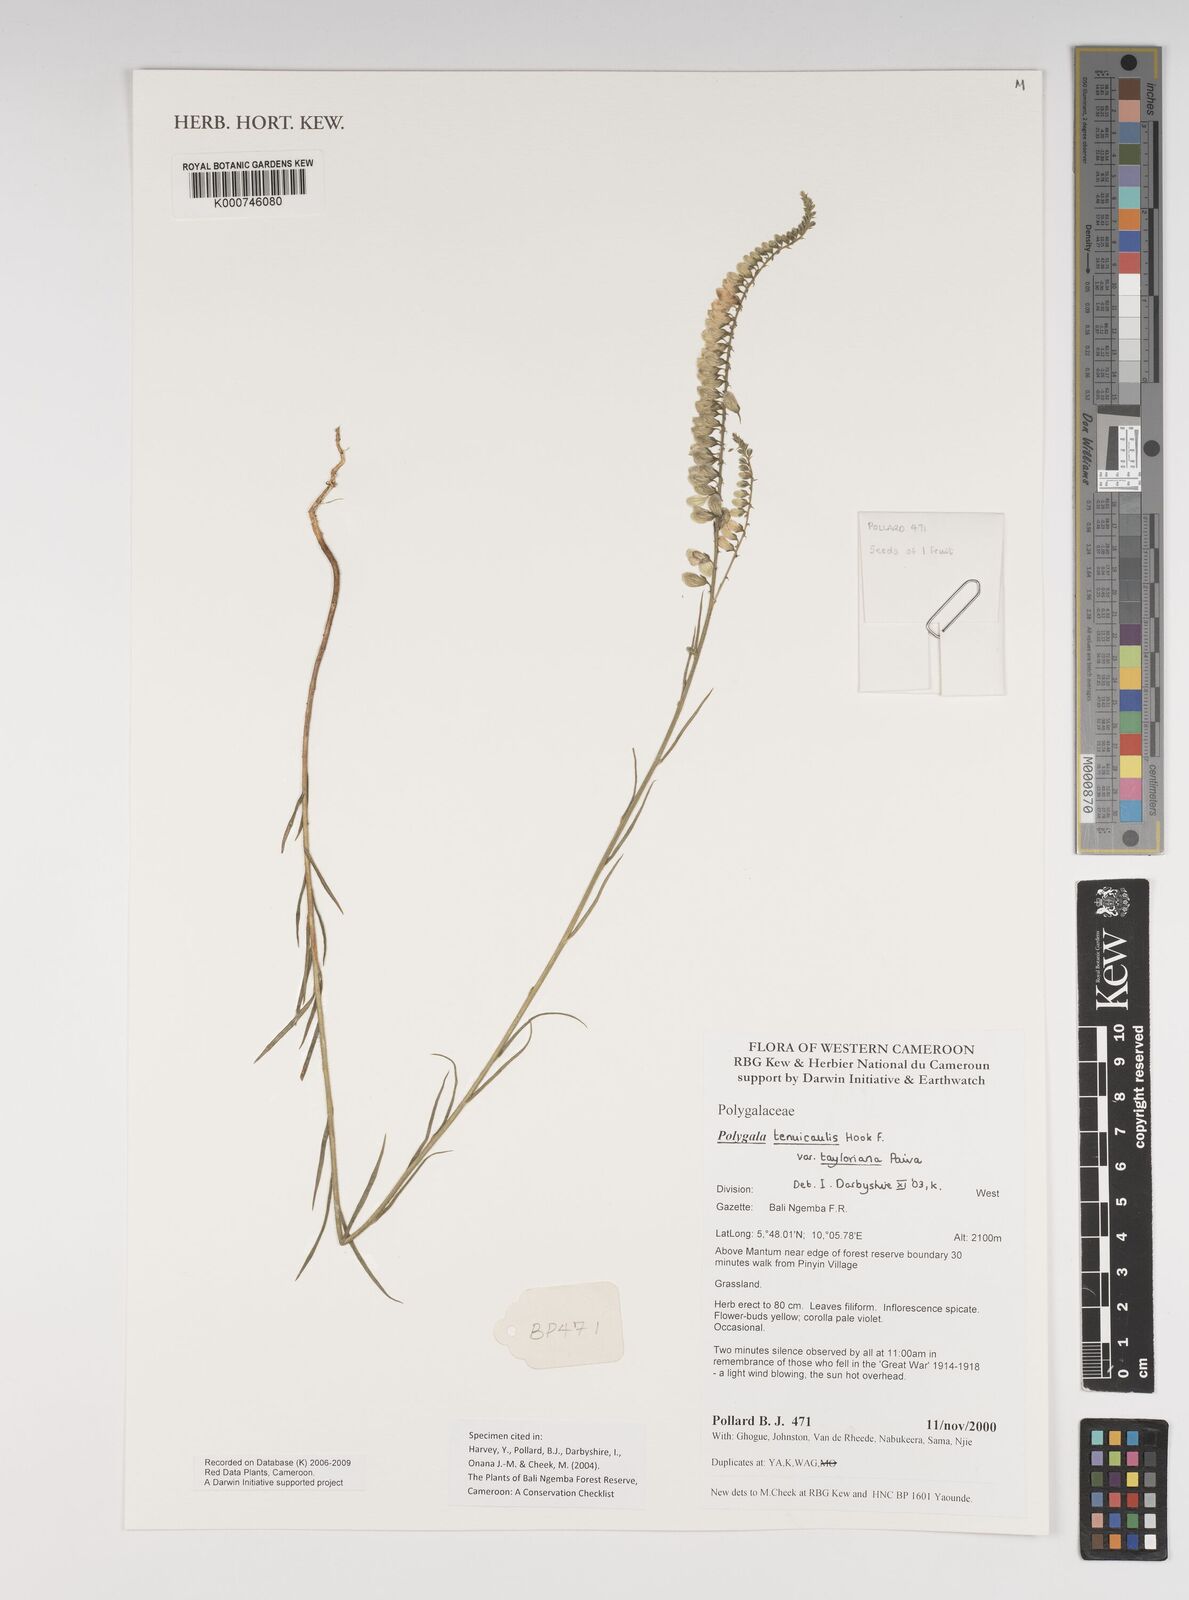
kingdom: Plantae
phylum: Tracheophyta
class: Magnoliopsida
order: Fabales
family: Polygalaceae
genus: Polygala
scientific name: Polygala tenuicaulis
